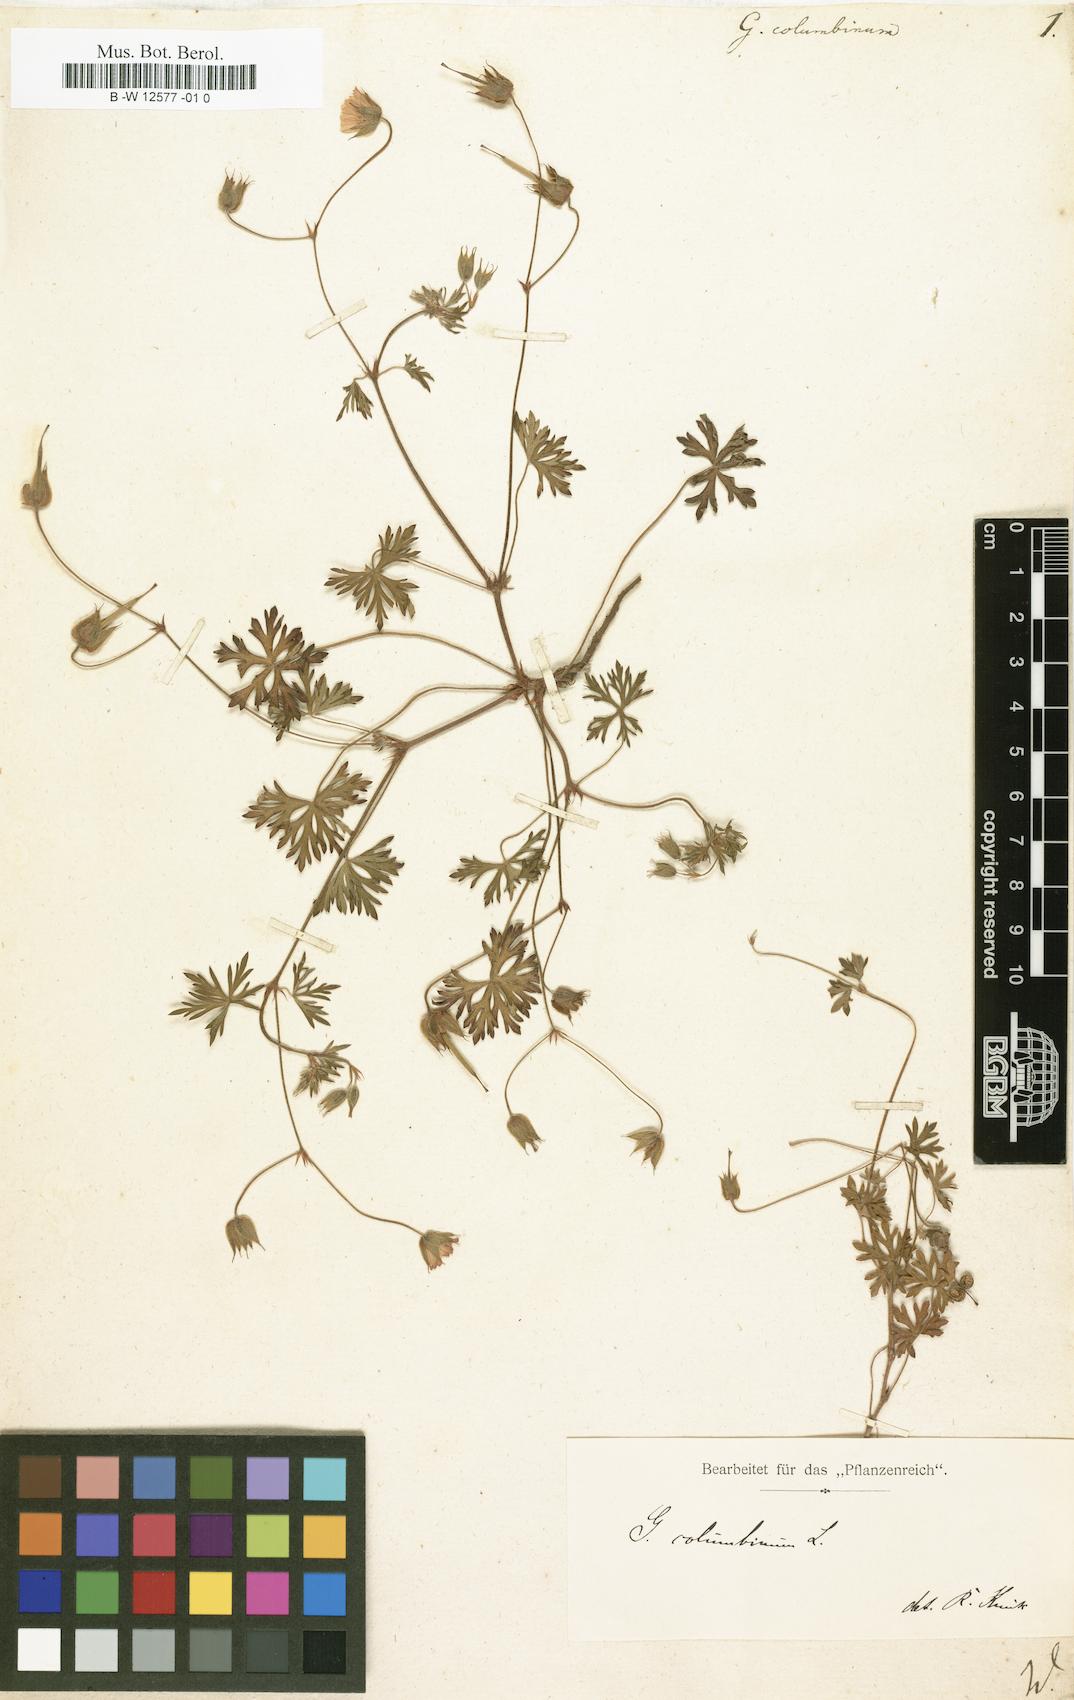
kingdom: Plantae
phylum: Tracheophyta
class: Magnoliopsida
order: Geraniales
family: Geraniaceae
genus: Geranium
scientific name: Geranium columbinum
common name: Long-stalked crane's-bill
